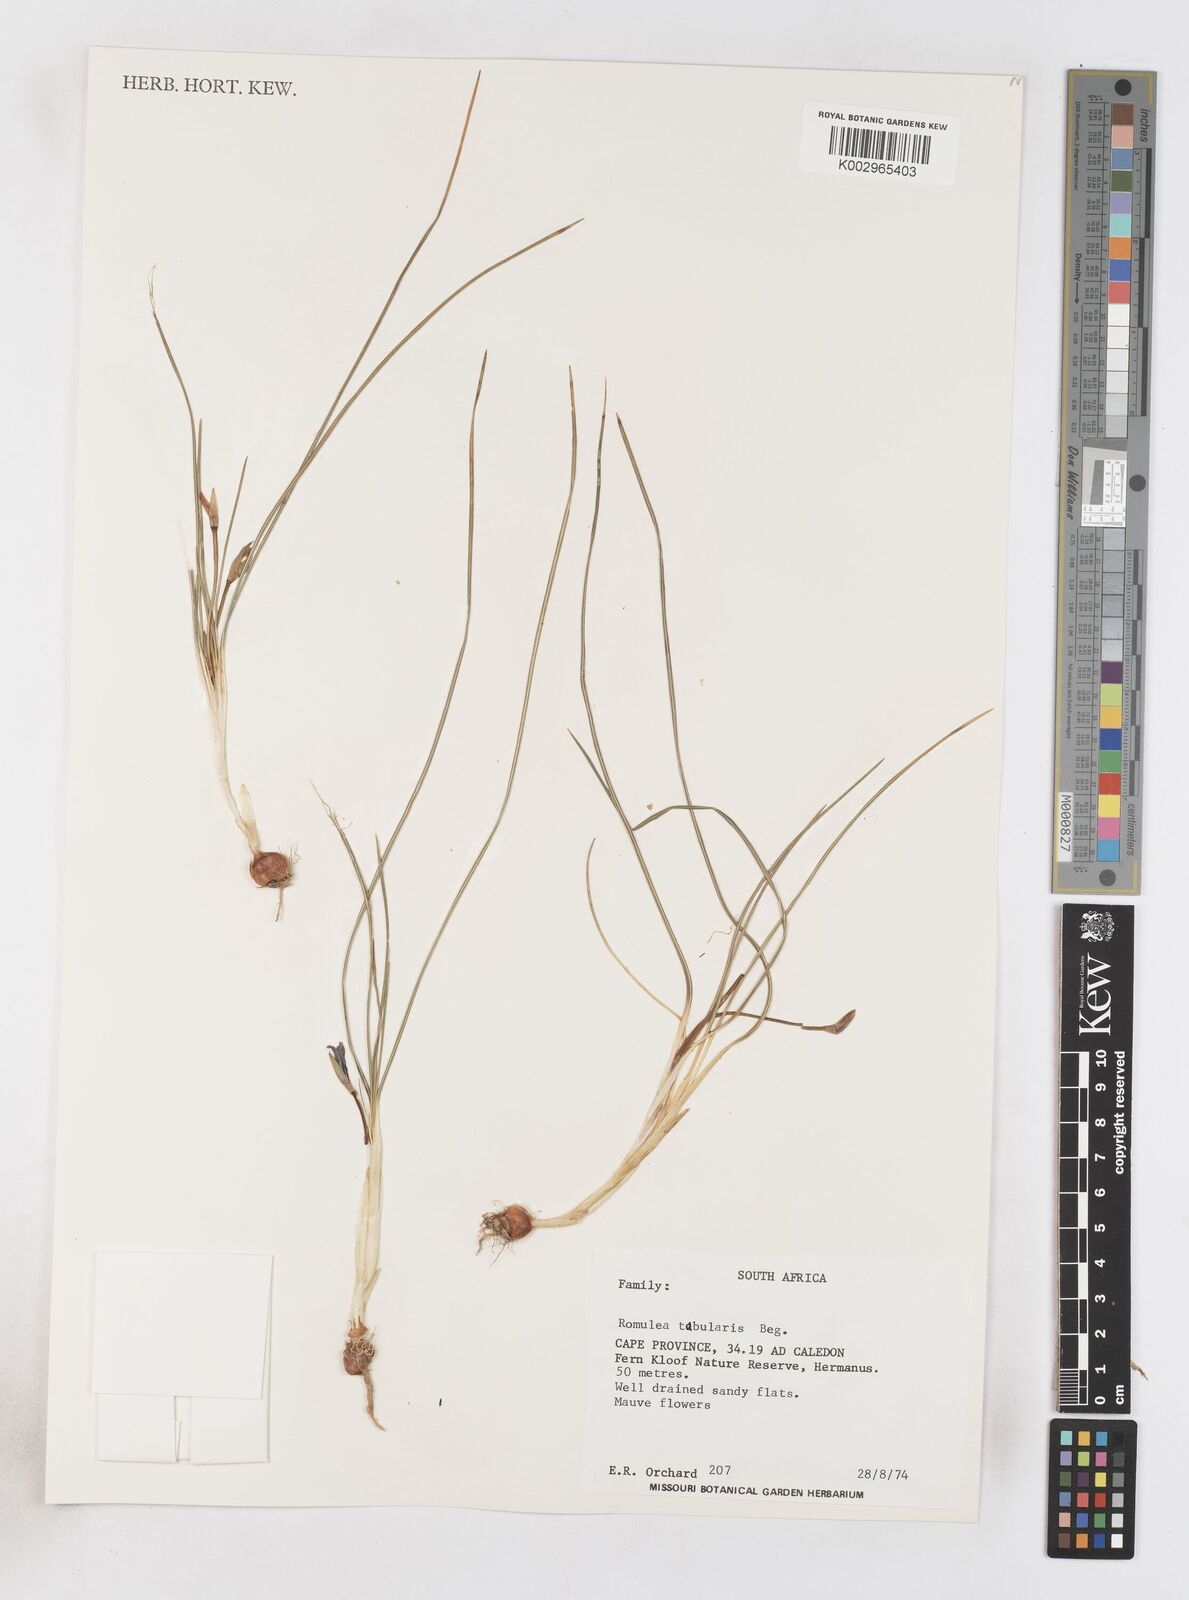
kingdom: Plantae
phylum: Tracheophyta
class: Liliopsida
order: Asparagales
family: Iridaceae
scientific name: Iridaceae
